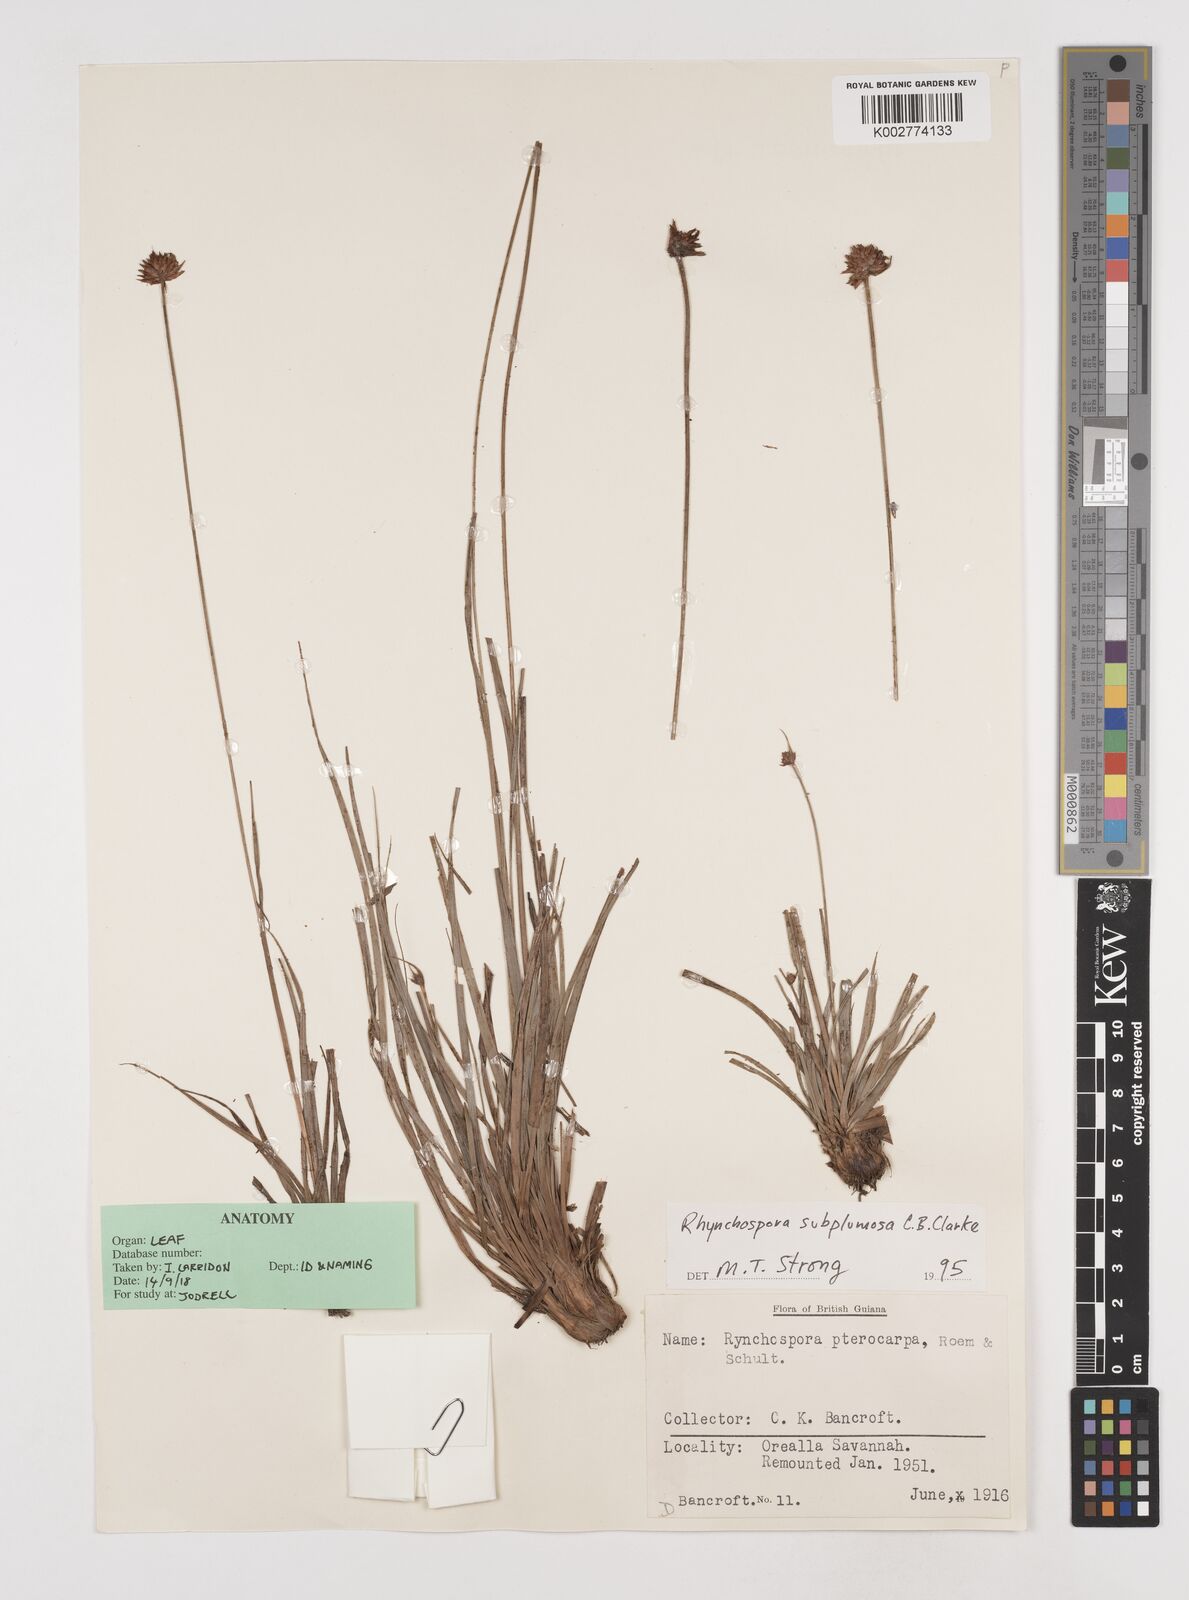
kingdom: Plantae
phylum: Tracheophyta
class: Liliopsida
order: Poales
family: Cyperaceae
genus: Rhynchospora
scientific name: Rhynchospora subplumosa
